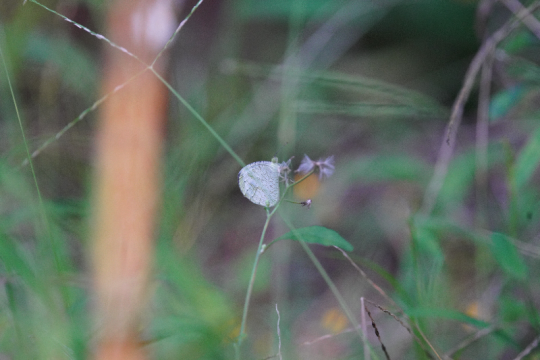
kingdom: Animalia
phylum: Arthropoda
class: Insecta
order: Lepidoptera
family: Pieridae
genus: Leptosia
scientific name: Leptosia nina
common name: Psyche
